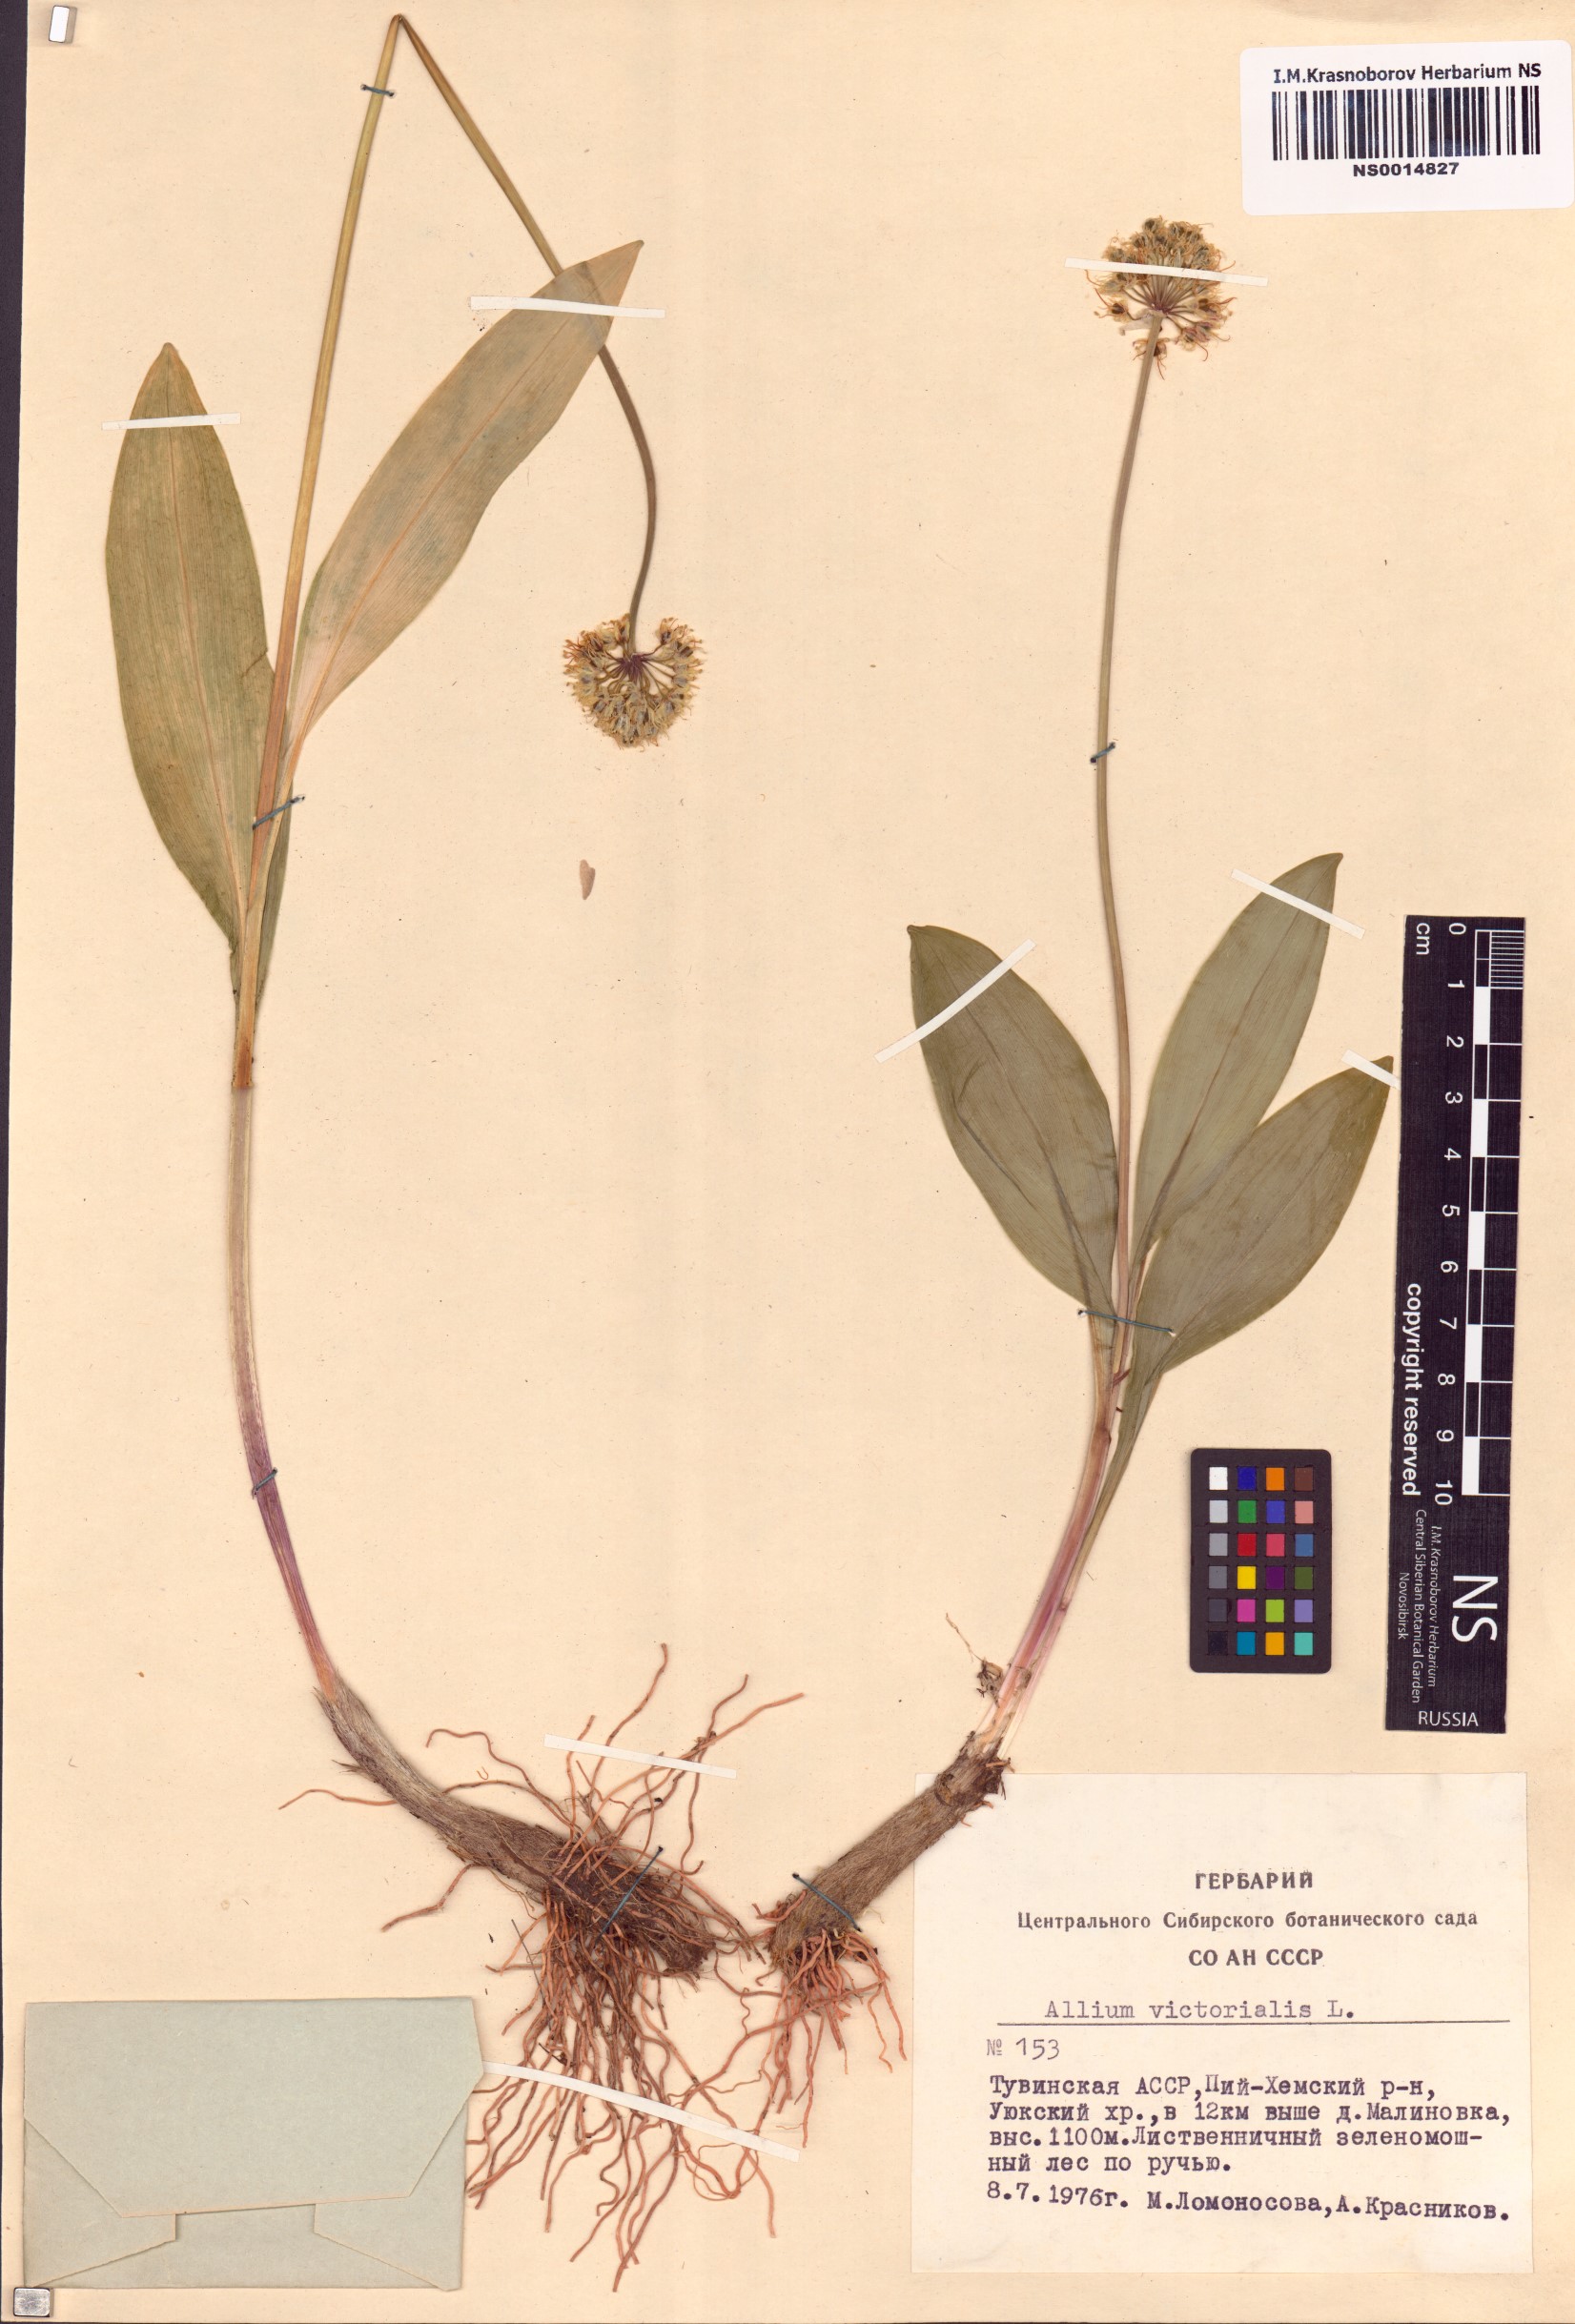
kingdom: Plantae
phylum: Tracheophyta
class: Liliopsida
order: Asparagales
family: Amaryllidaceae
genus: Allium
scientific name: Allium victorialis
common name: Alpine leek
